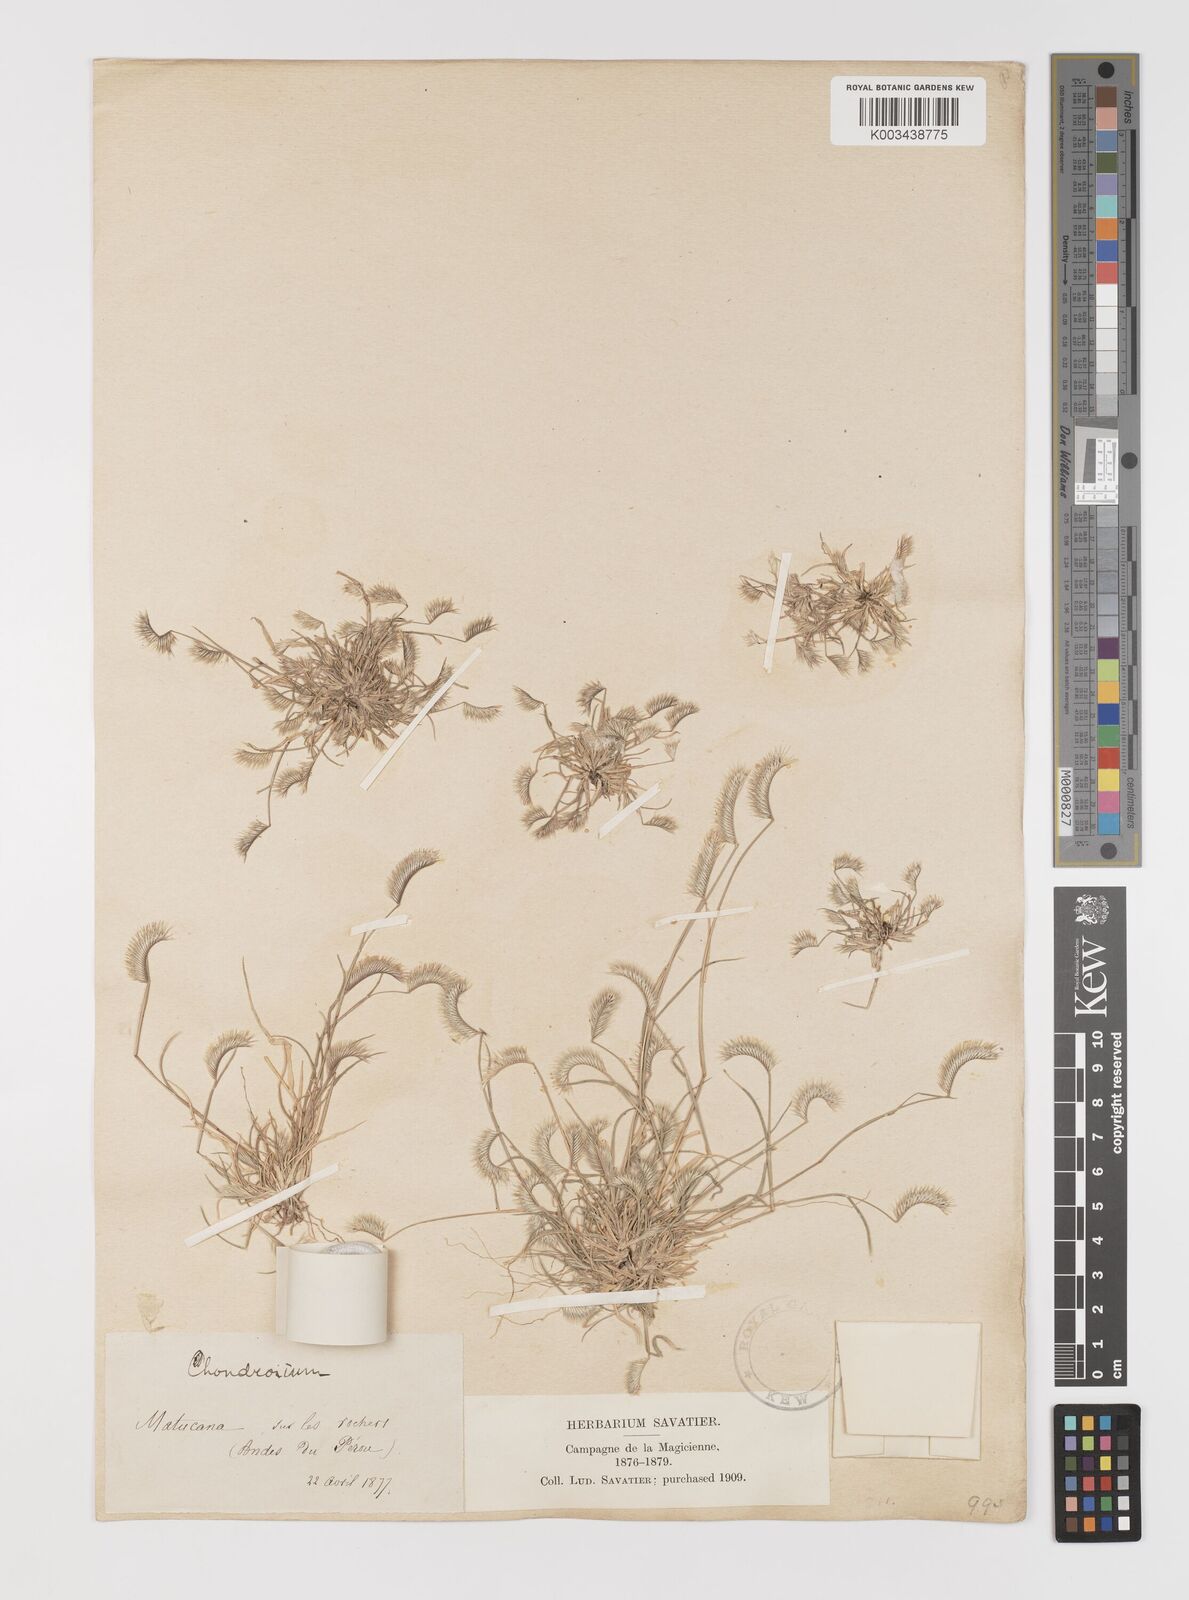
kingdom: Plantae
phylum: Tracheophyta
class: Liliopsida
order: Poales
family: Poaceae
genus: Bouteloua
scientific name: Bouteloua simplex
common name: Mat grama
